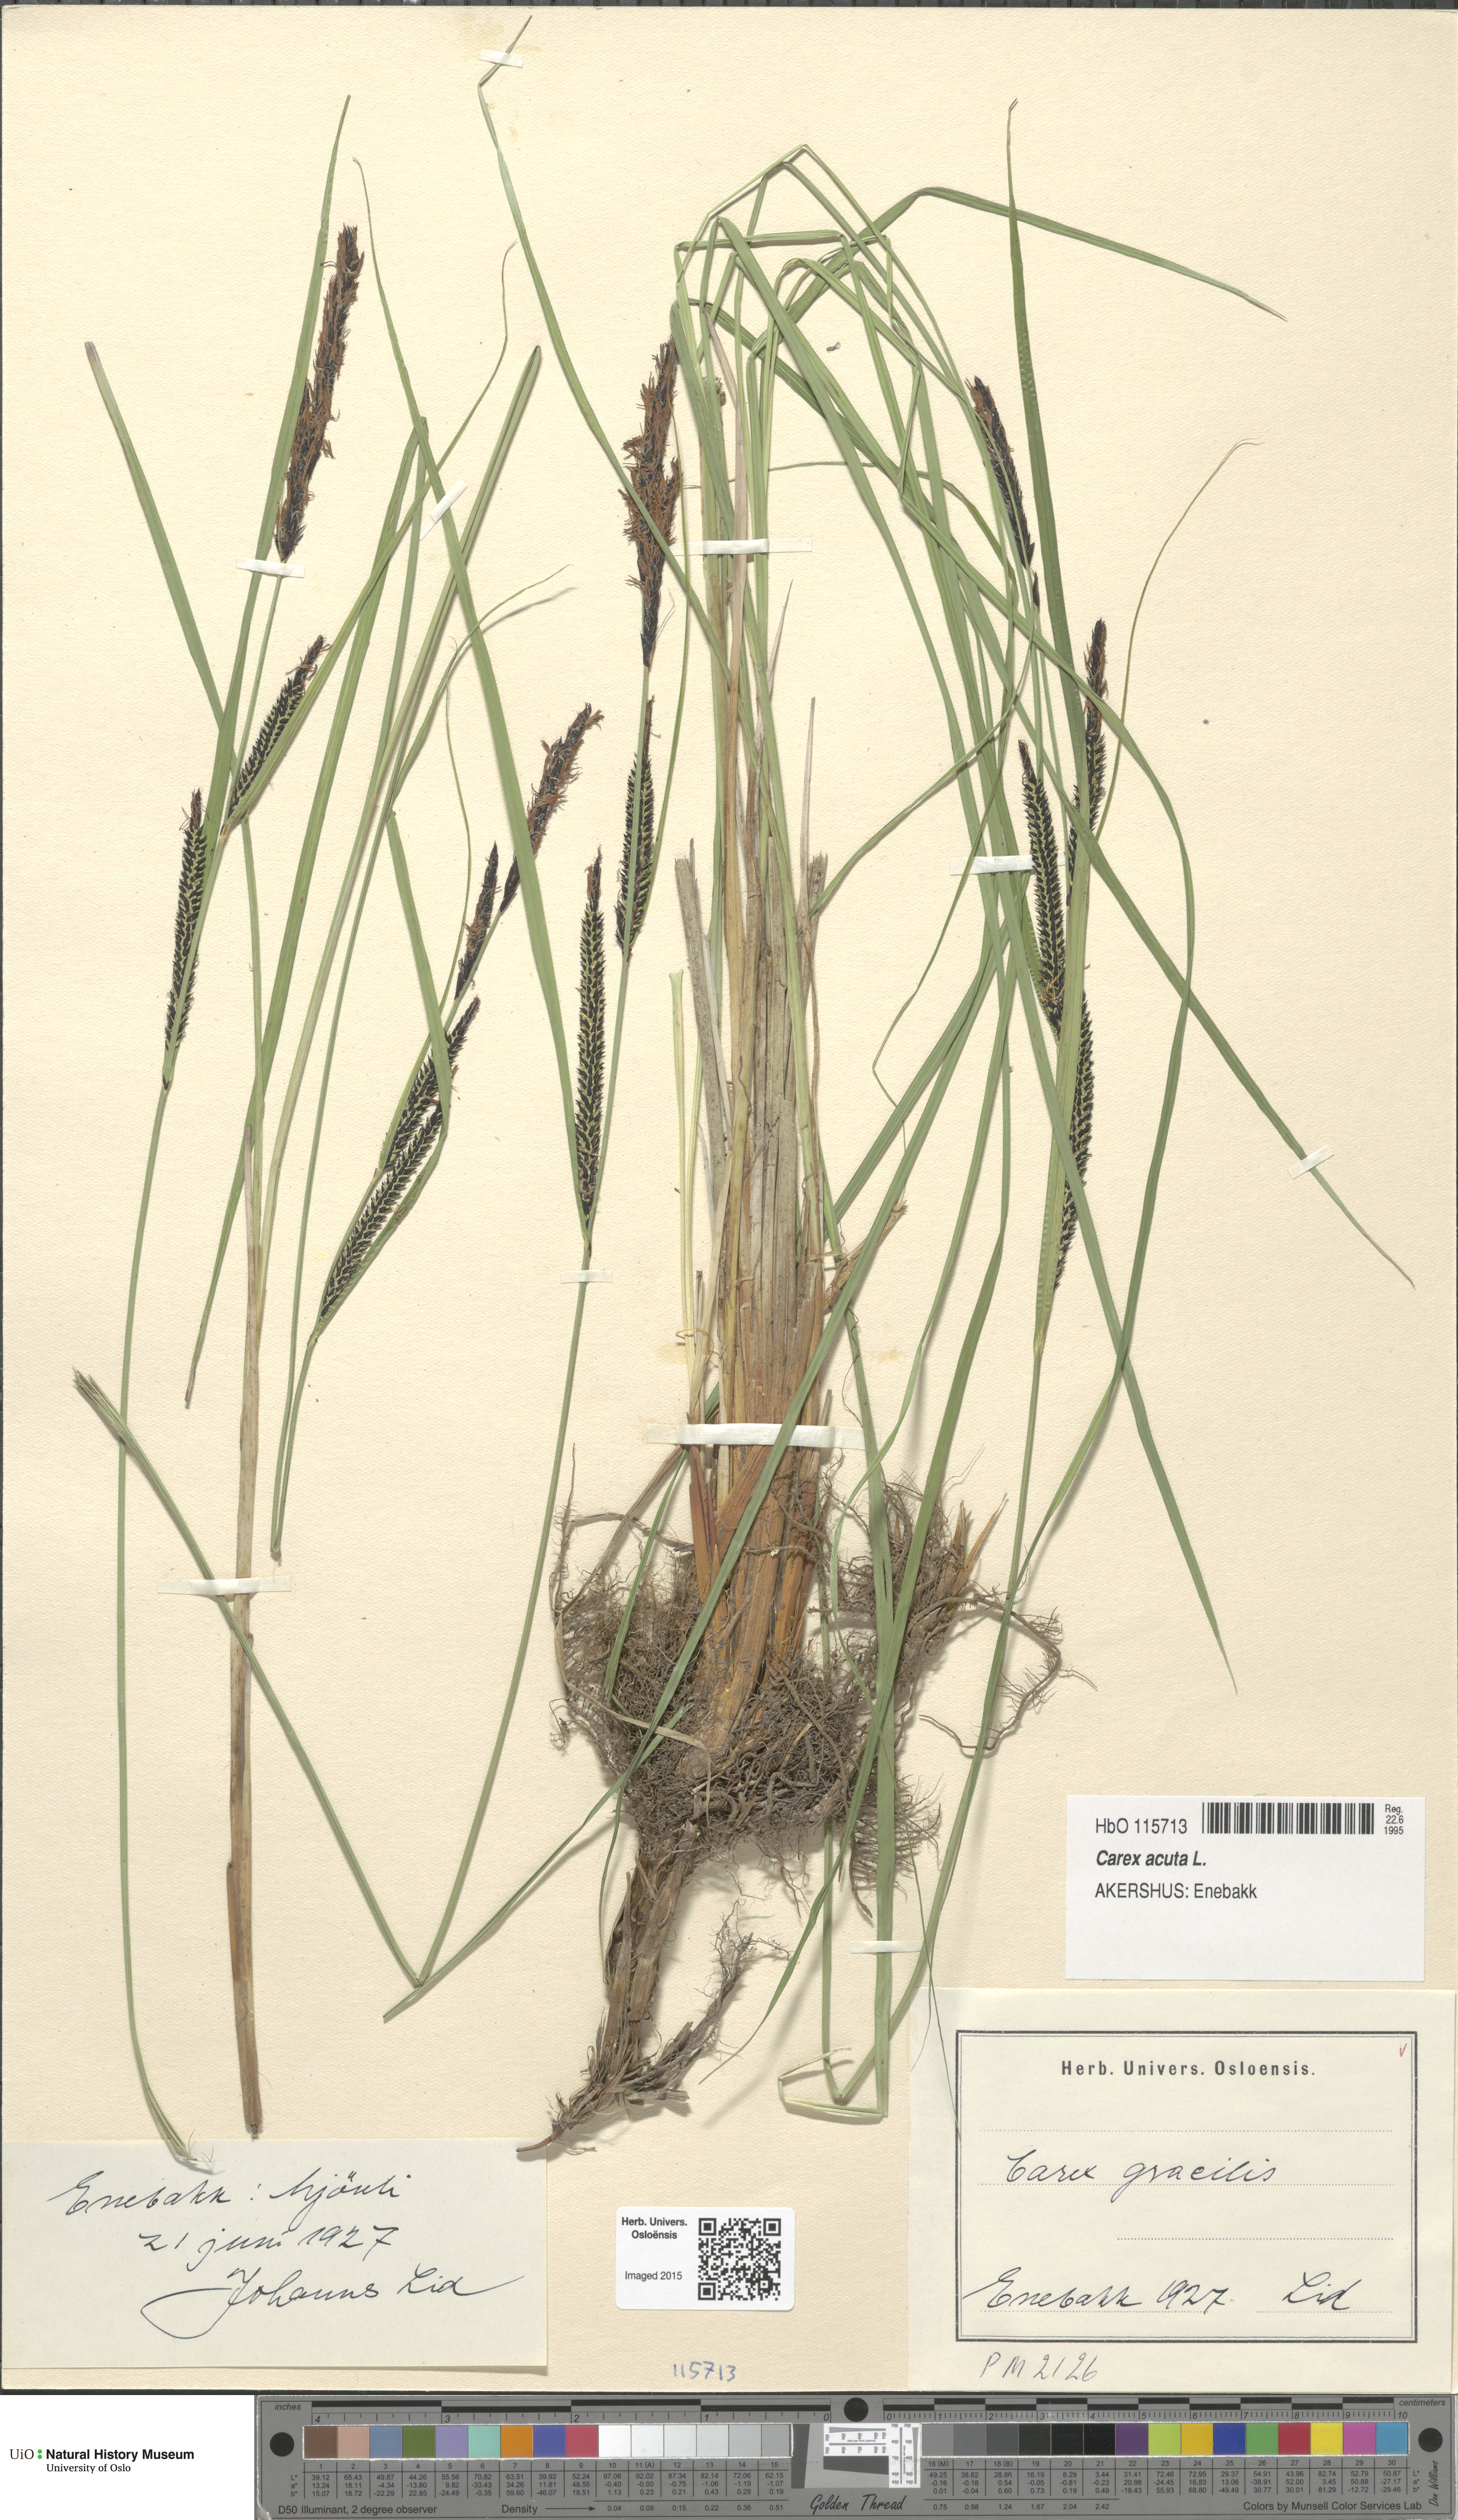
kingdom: Plantae
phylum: Tracheophyta
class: Liliopsida
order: Poales
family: Cyperaceae
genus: Carex
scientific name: Carex acuta
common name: Slender tufted-sedge
